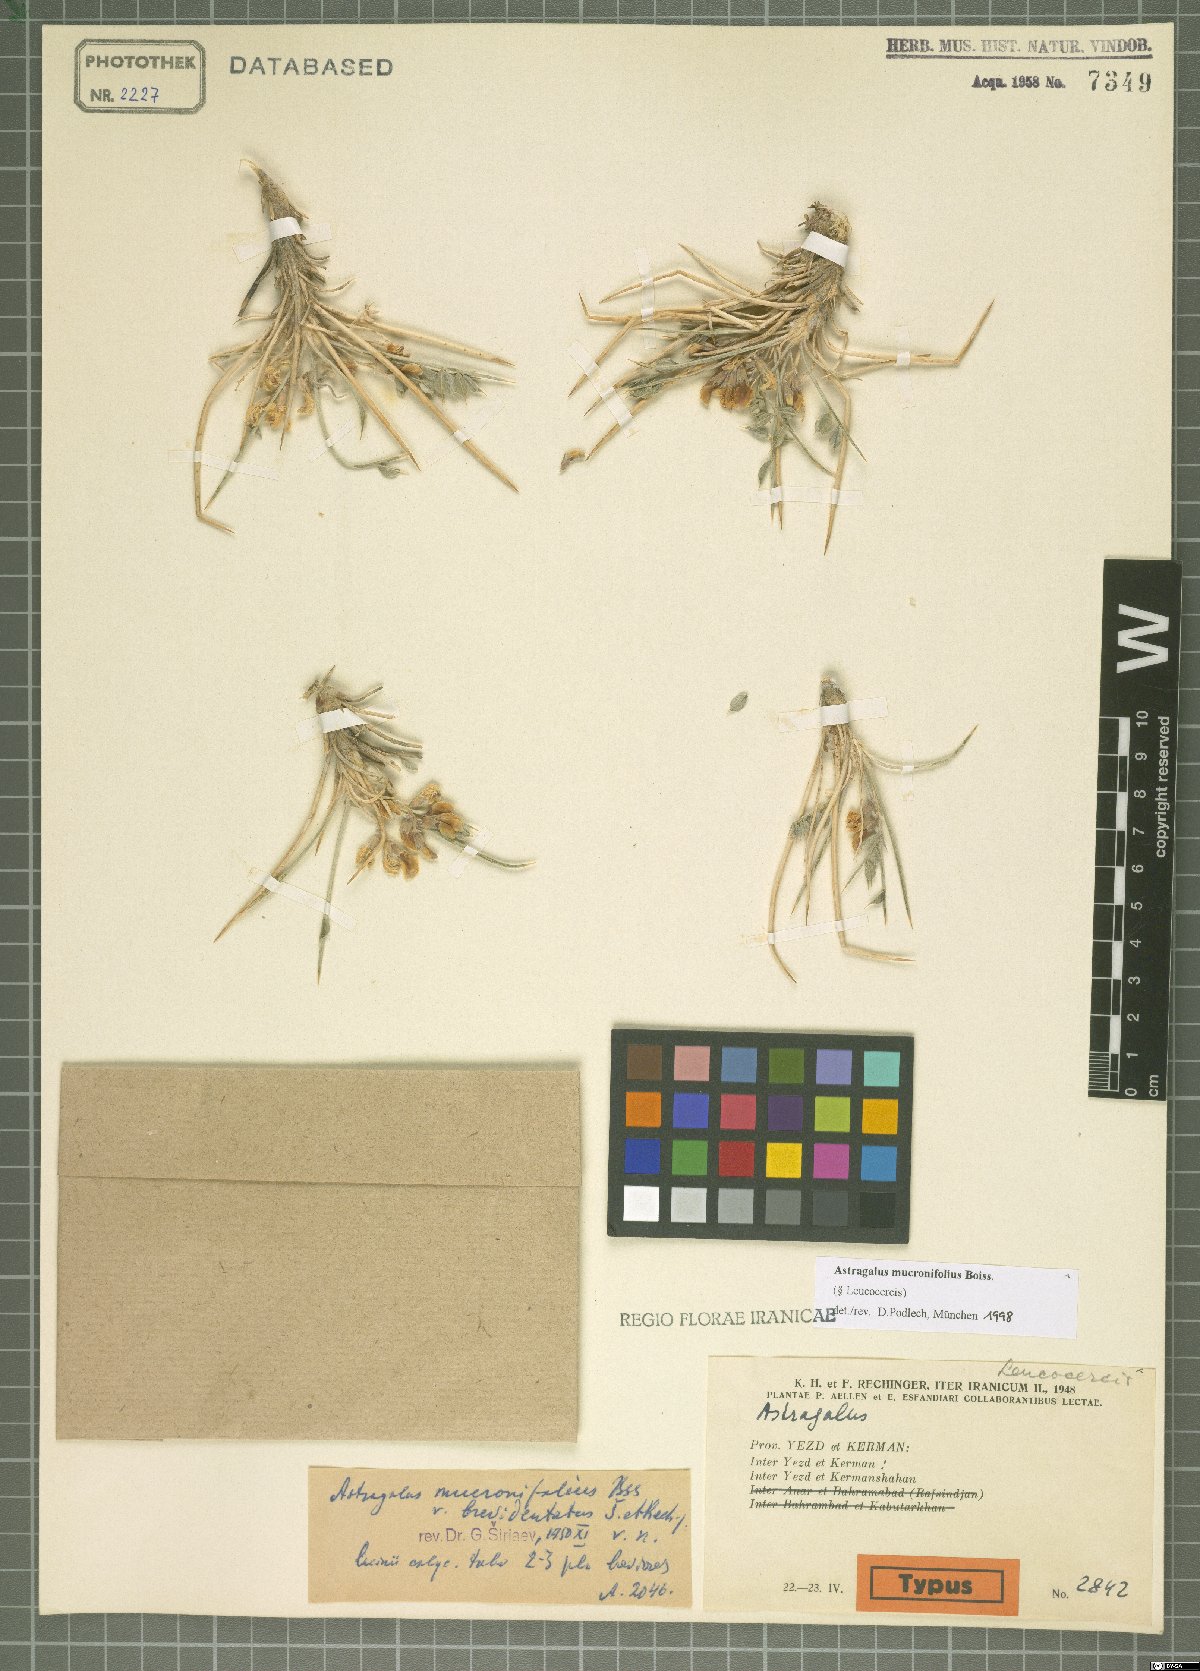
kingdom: Plantae
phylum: Tracheophyta
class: Magnoliopsida
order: Fabales
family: Fabaceae
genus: Astragalus
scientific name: Astragalus mucronifolius
